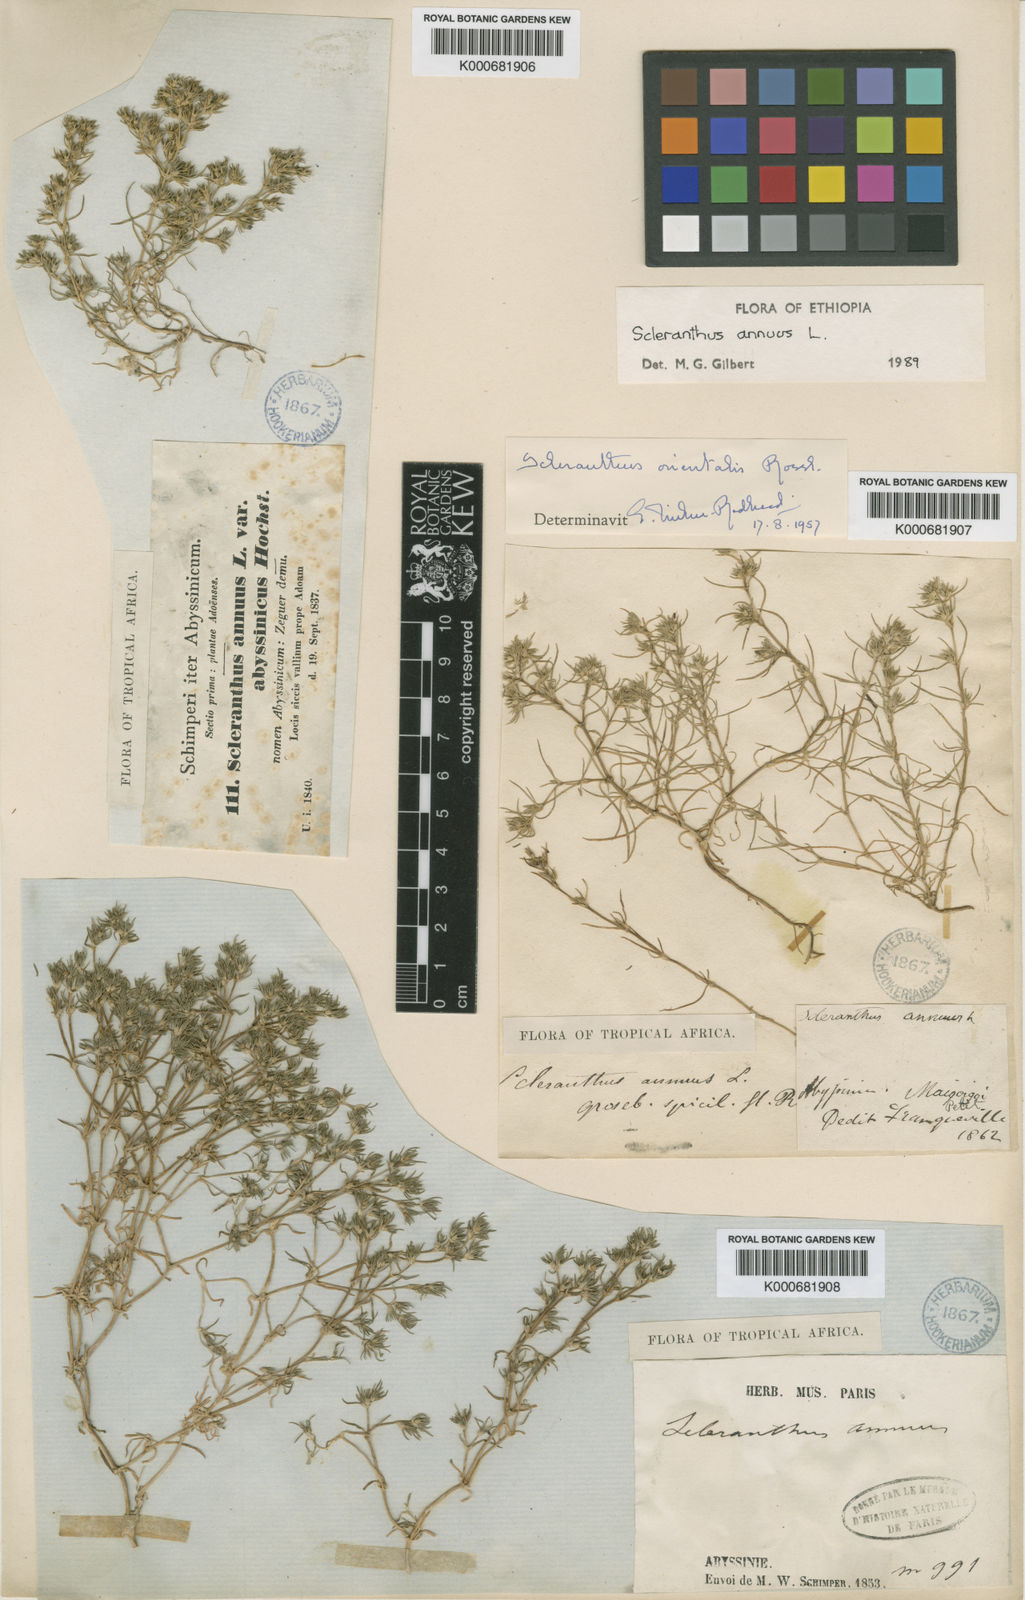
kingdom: Plantae
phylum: Tracheophyta
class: Magnoliopsida
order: Caryophyllales
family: Caryophyllaceae
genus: Scleranthus
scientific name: Scleranthus annuus
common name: Annual knawel
